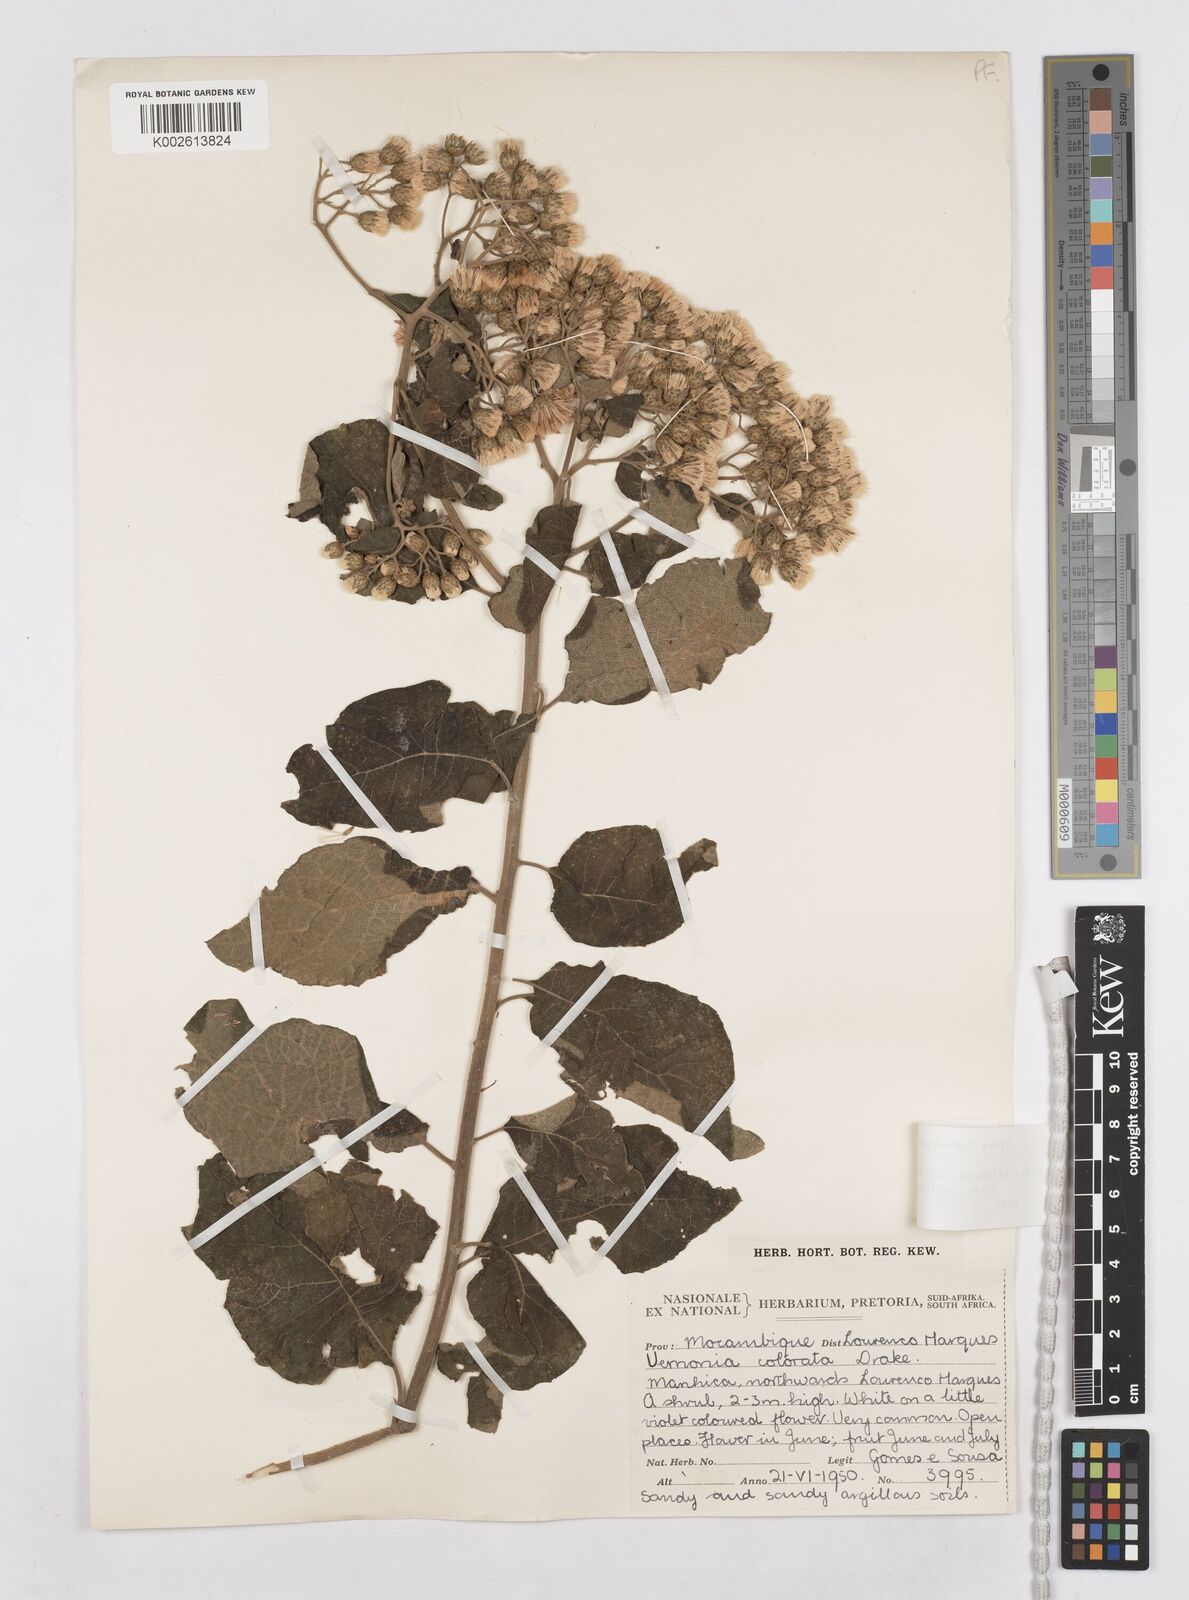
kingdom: Plantae
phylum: Tracheophyta
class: Magnoliopsida
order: Asterales
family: Asteraceae
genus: Vernonia
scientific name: Vernonia colorata
